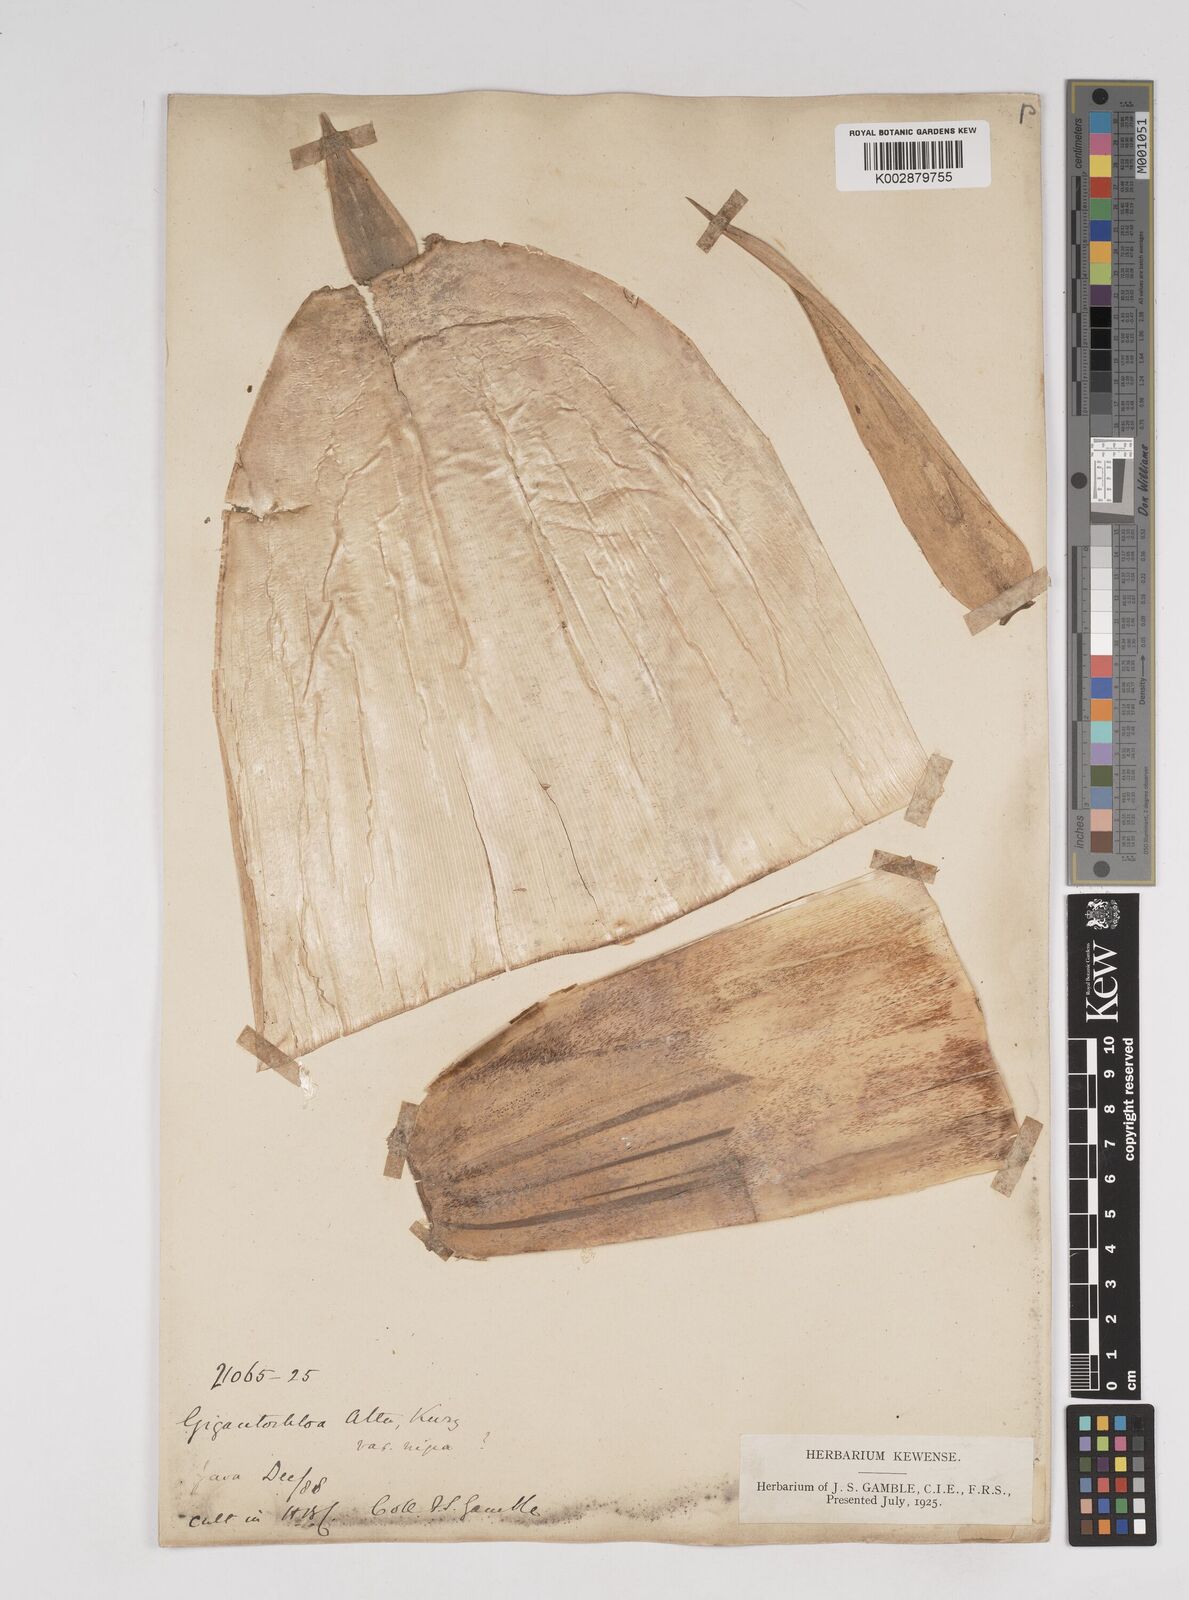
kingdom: Plantae
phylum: Tracheophyta
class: Liliopsida
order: Poales
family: Poaceae
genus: Gigantochloa
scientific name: Gigantochloa atter
